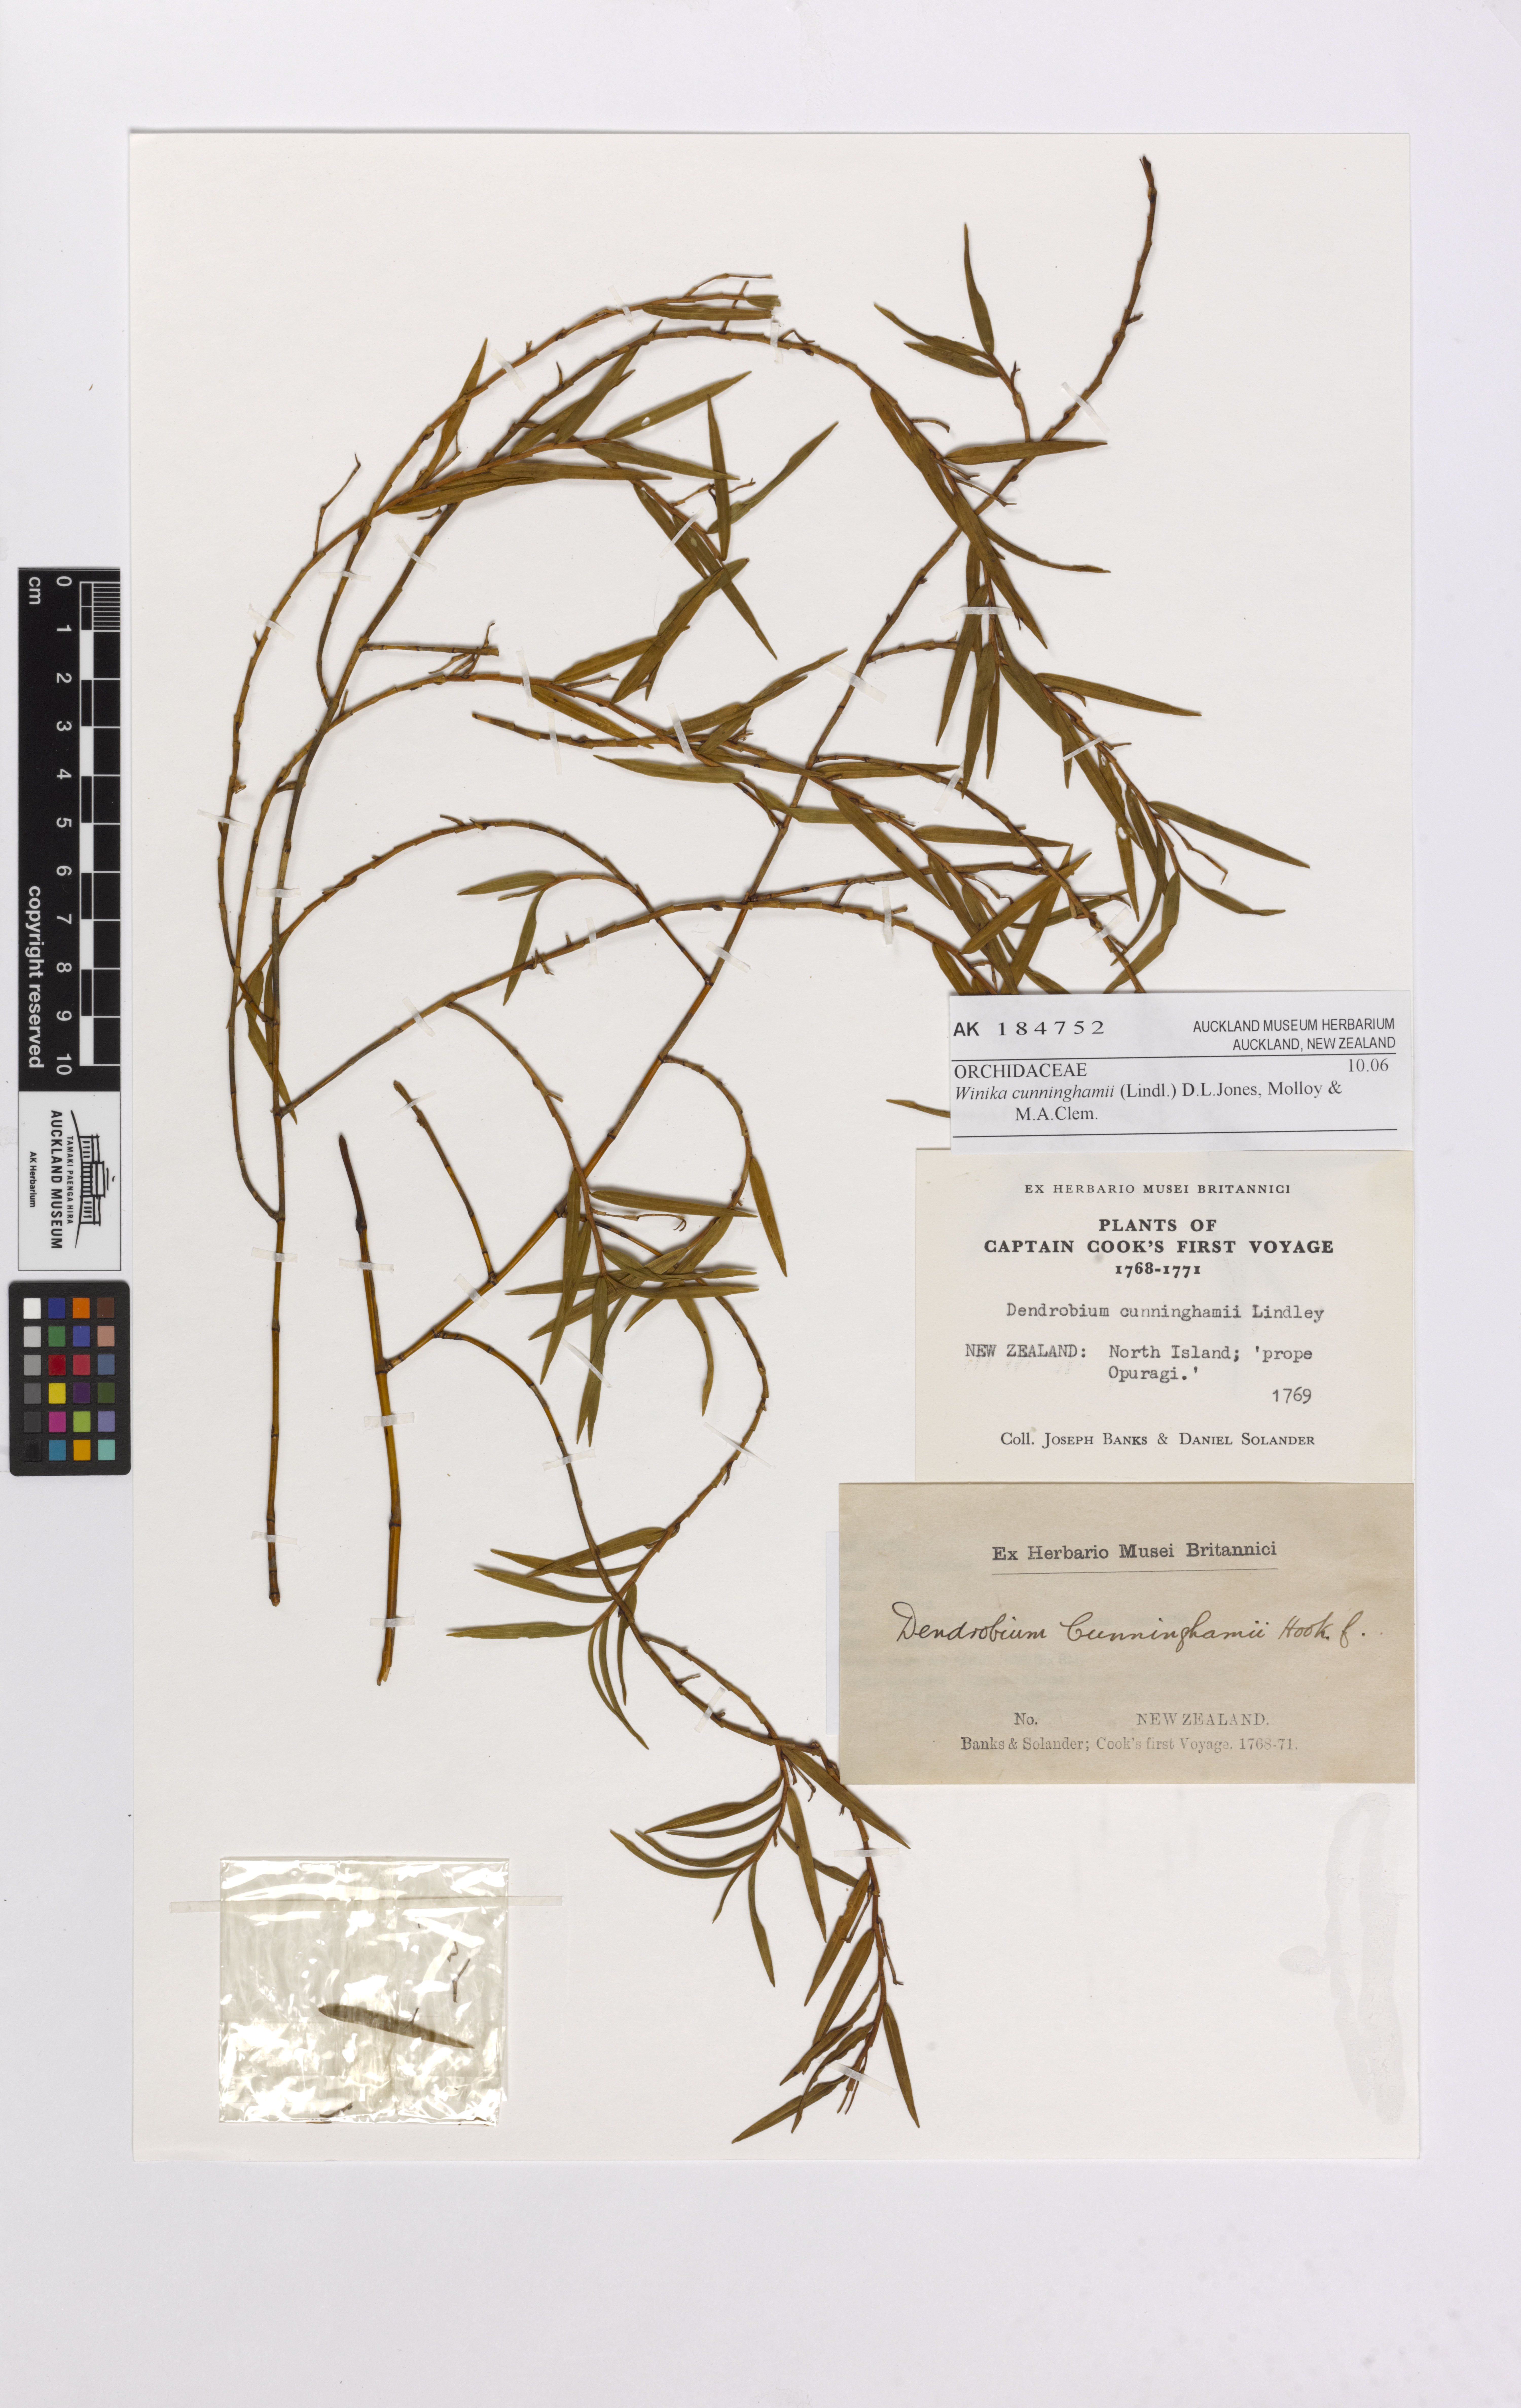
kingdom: Plantae
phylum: Tracheophyta
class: Liliopsida
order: Asparagales
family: Orchidaceae
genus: Dendrobium
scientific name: Dendrobium cunninghamii
